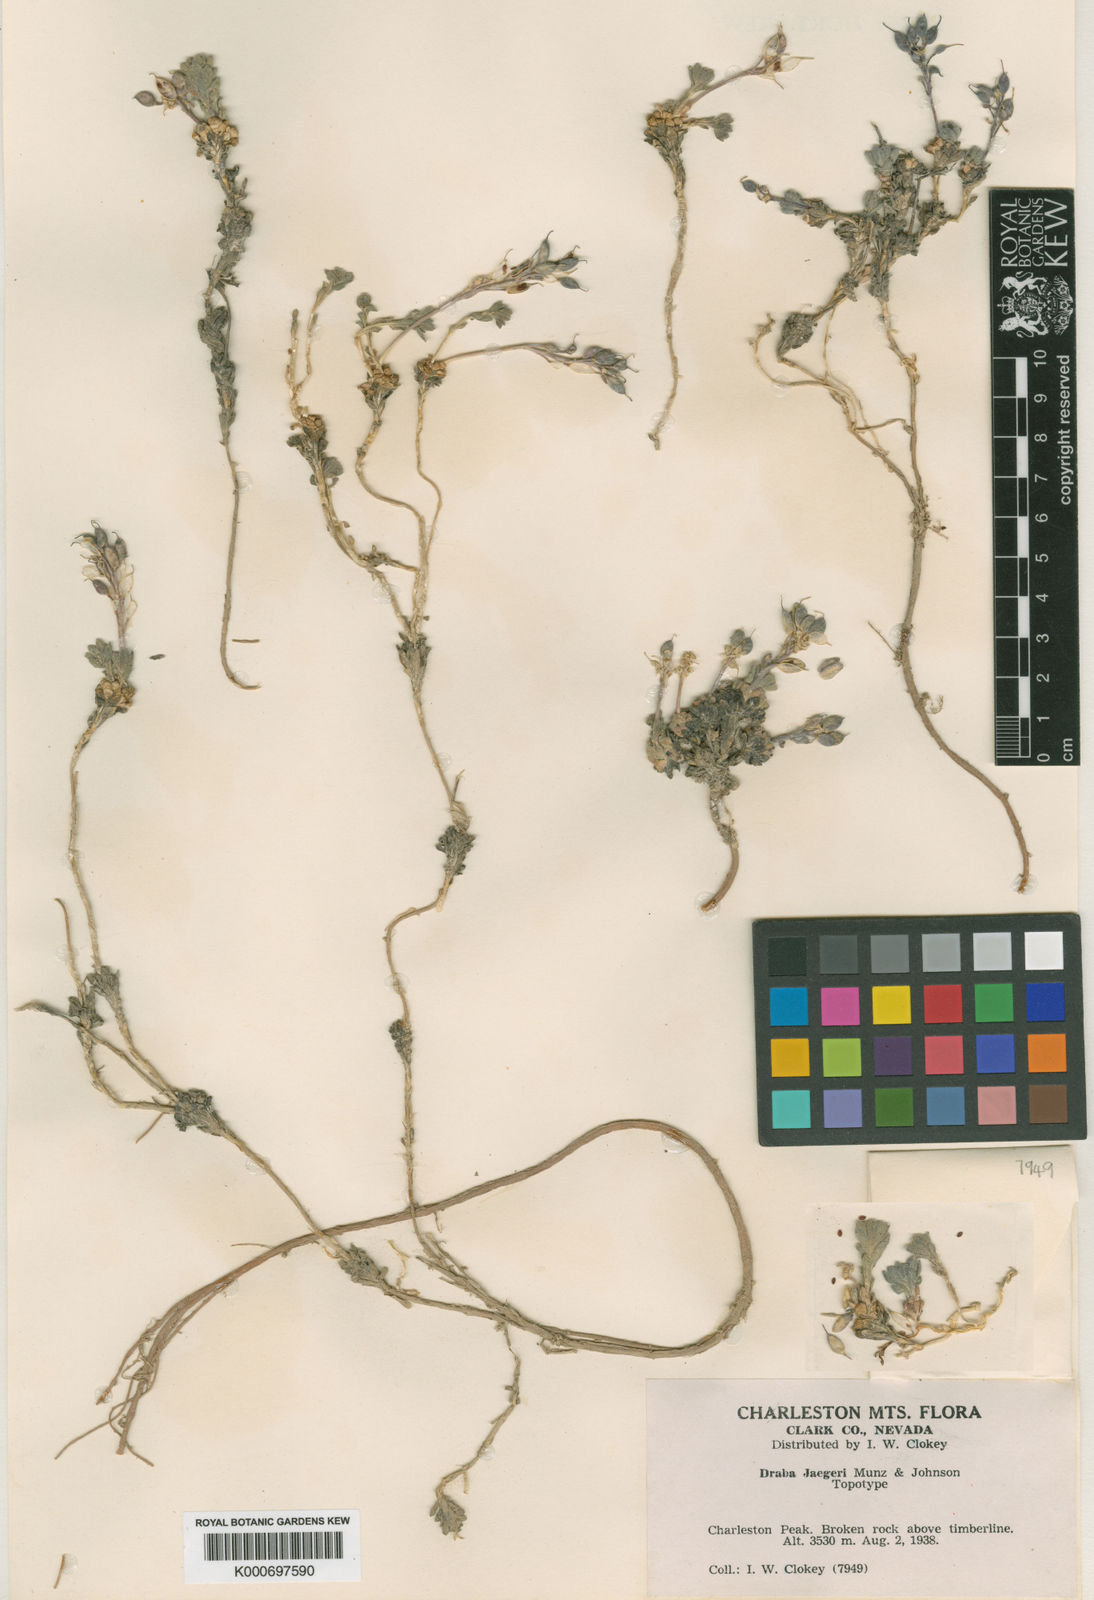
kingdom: Plantae
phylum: Tracheophyta
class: Magnoliopsida
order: Brassicales
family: Brassicaceae
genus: Draba
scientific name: Draba jaegeri
